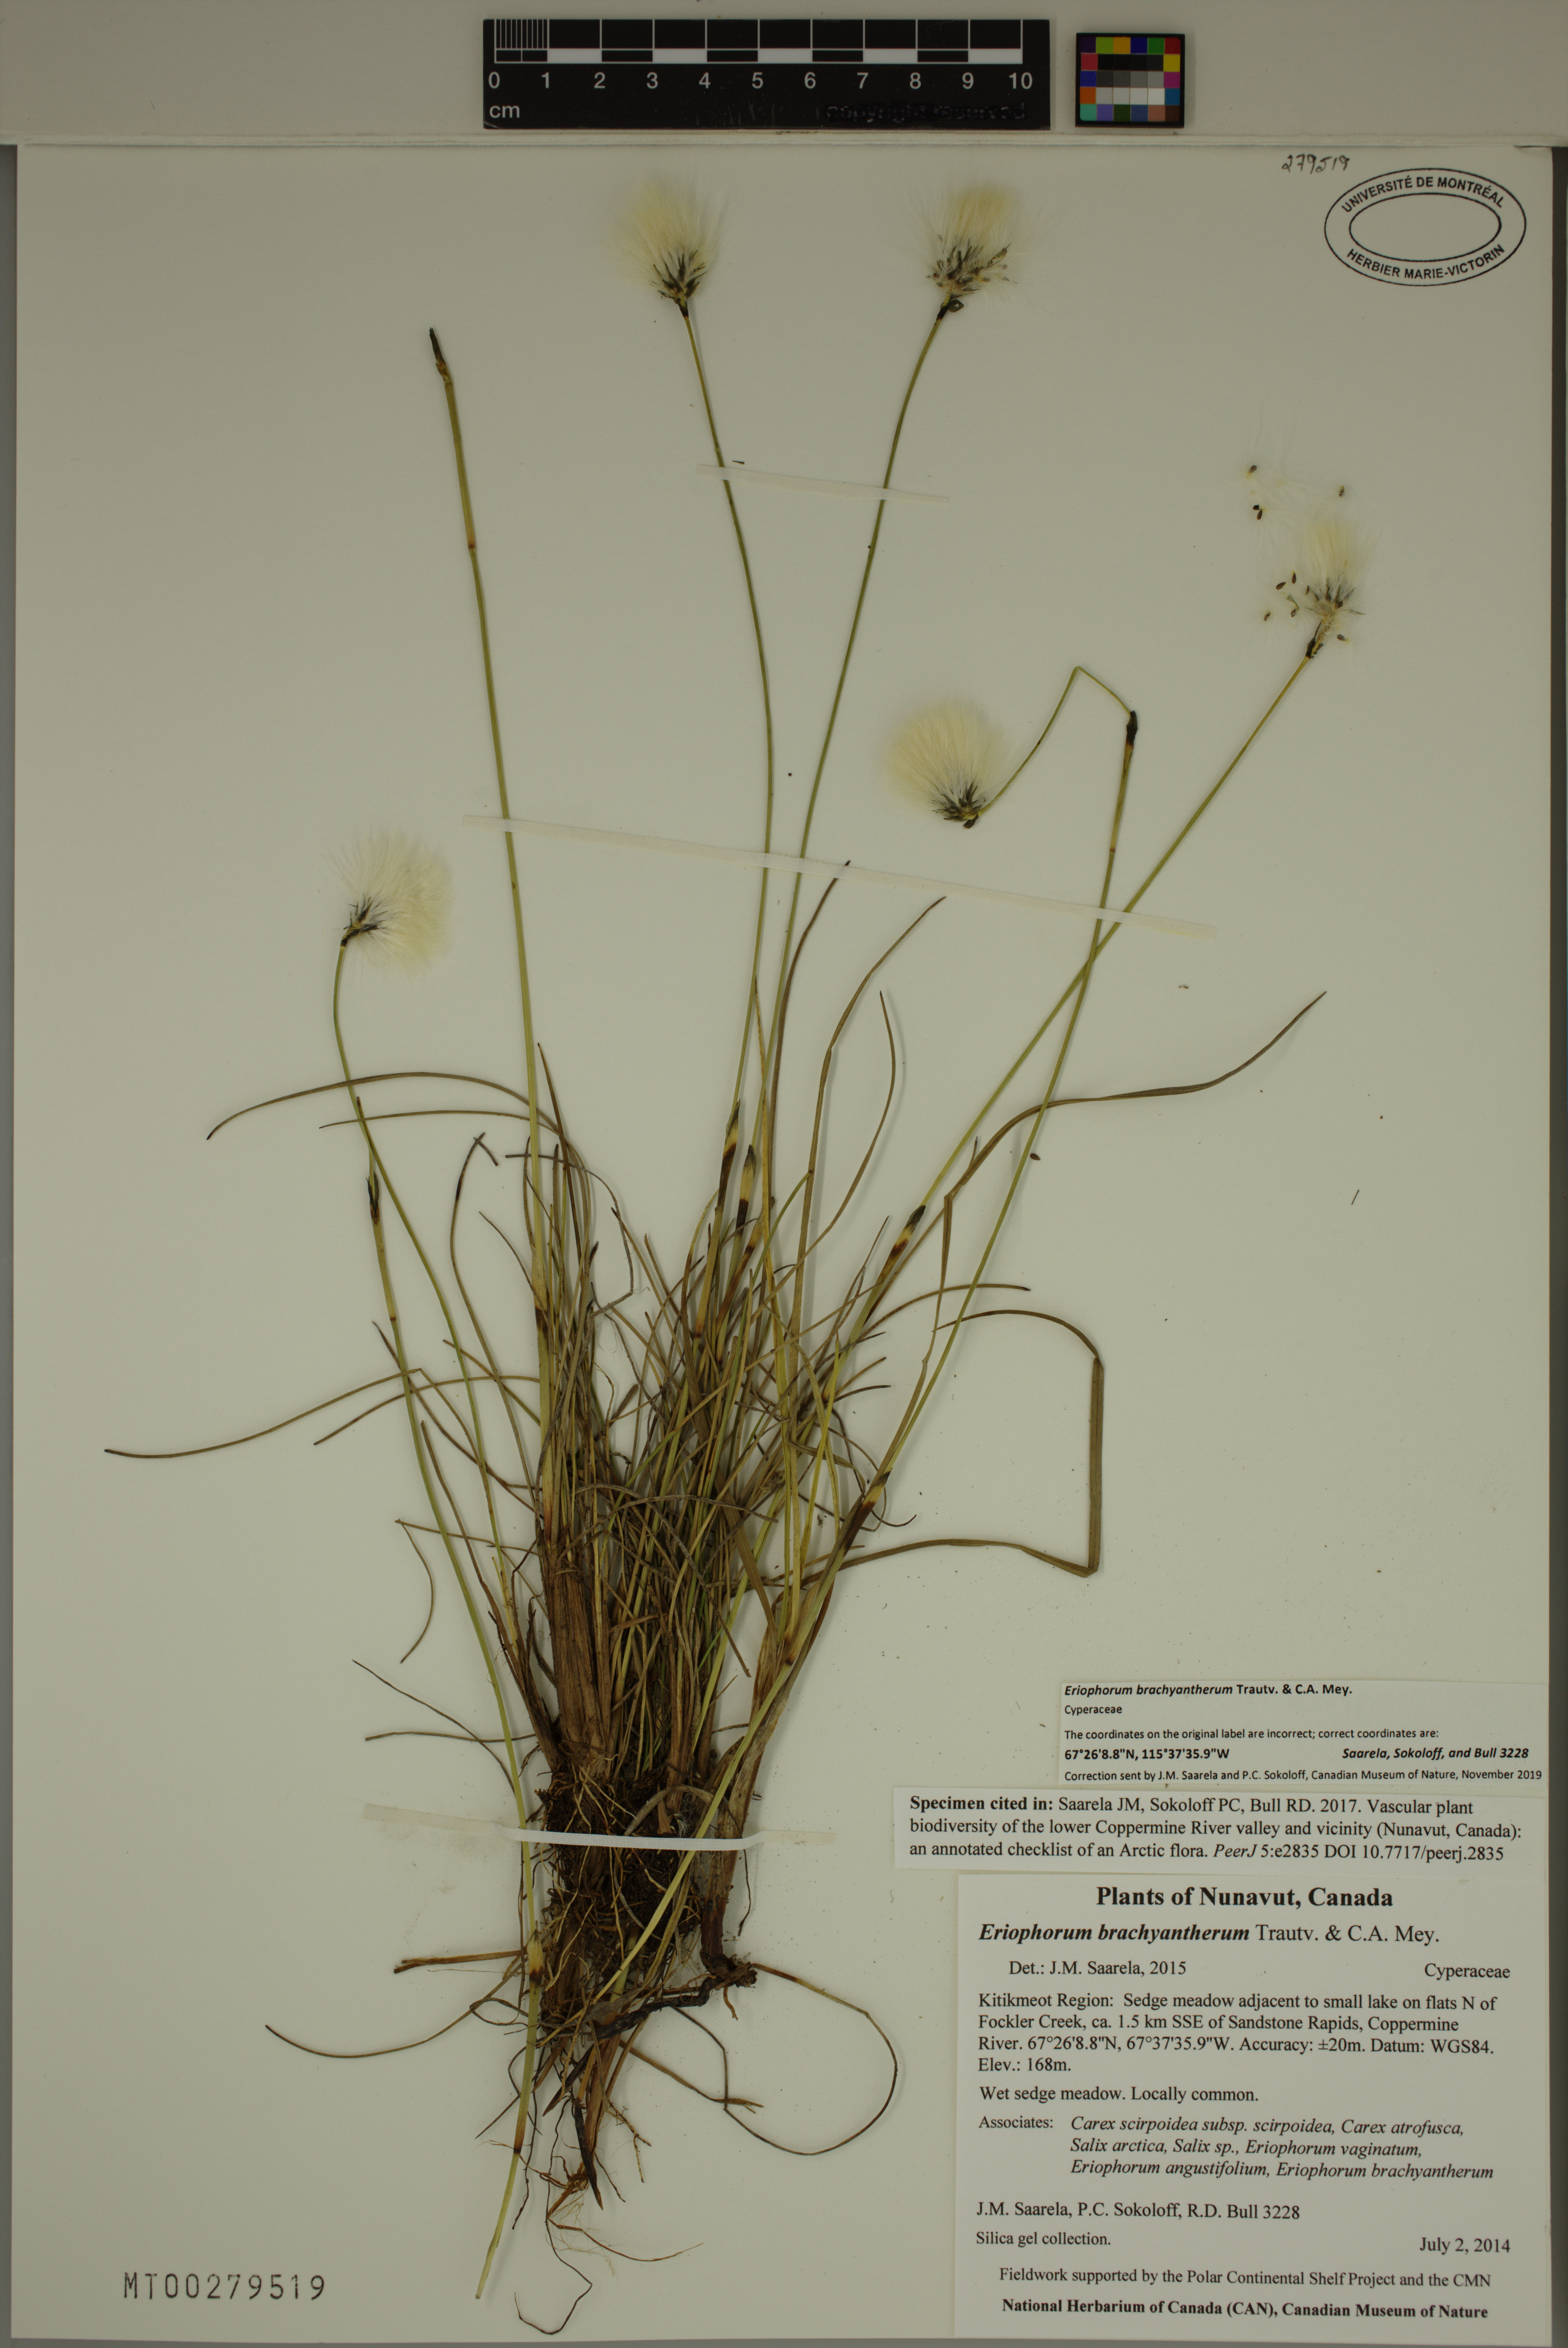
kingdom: Plantae
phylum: Tracheophyta
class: Liliopsida
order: Poales
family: Cyperaceae
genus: Eriophorum
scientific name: Eriophorum brachyantherum
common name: Closed-sheathed cottongrass
